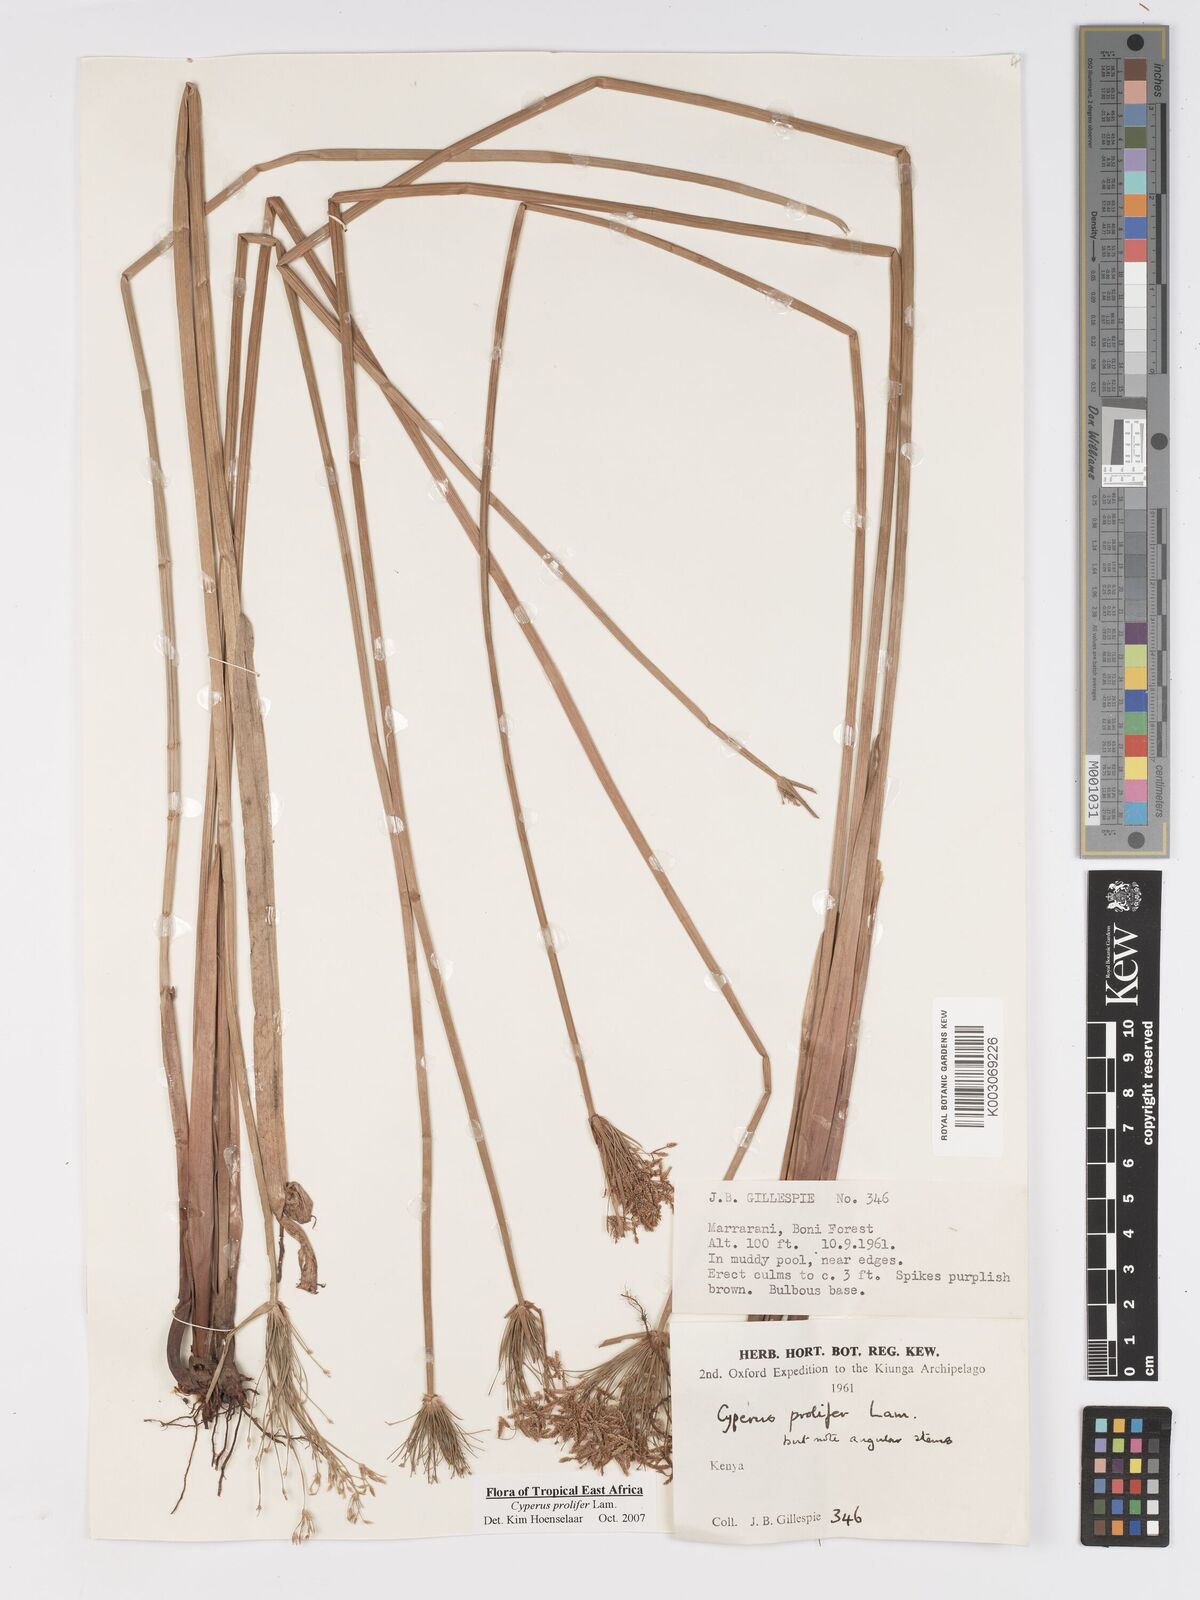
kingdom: Plantae
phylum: Tracheophyta
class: Liliopsida
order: Poales
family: Cyperaceae
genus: Cyperus
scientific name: Cyperus prolifer
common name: Miniature flatsedge
